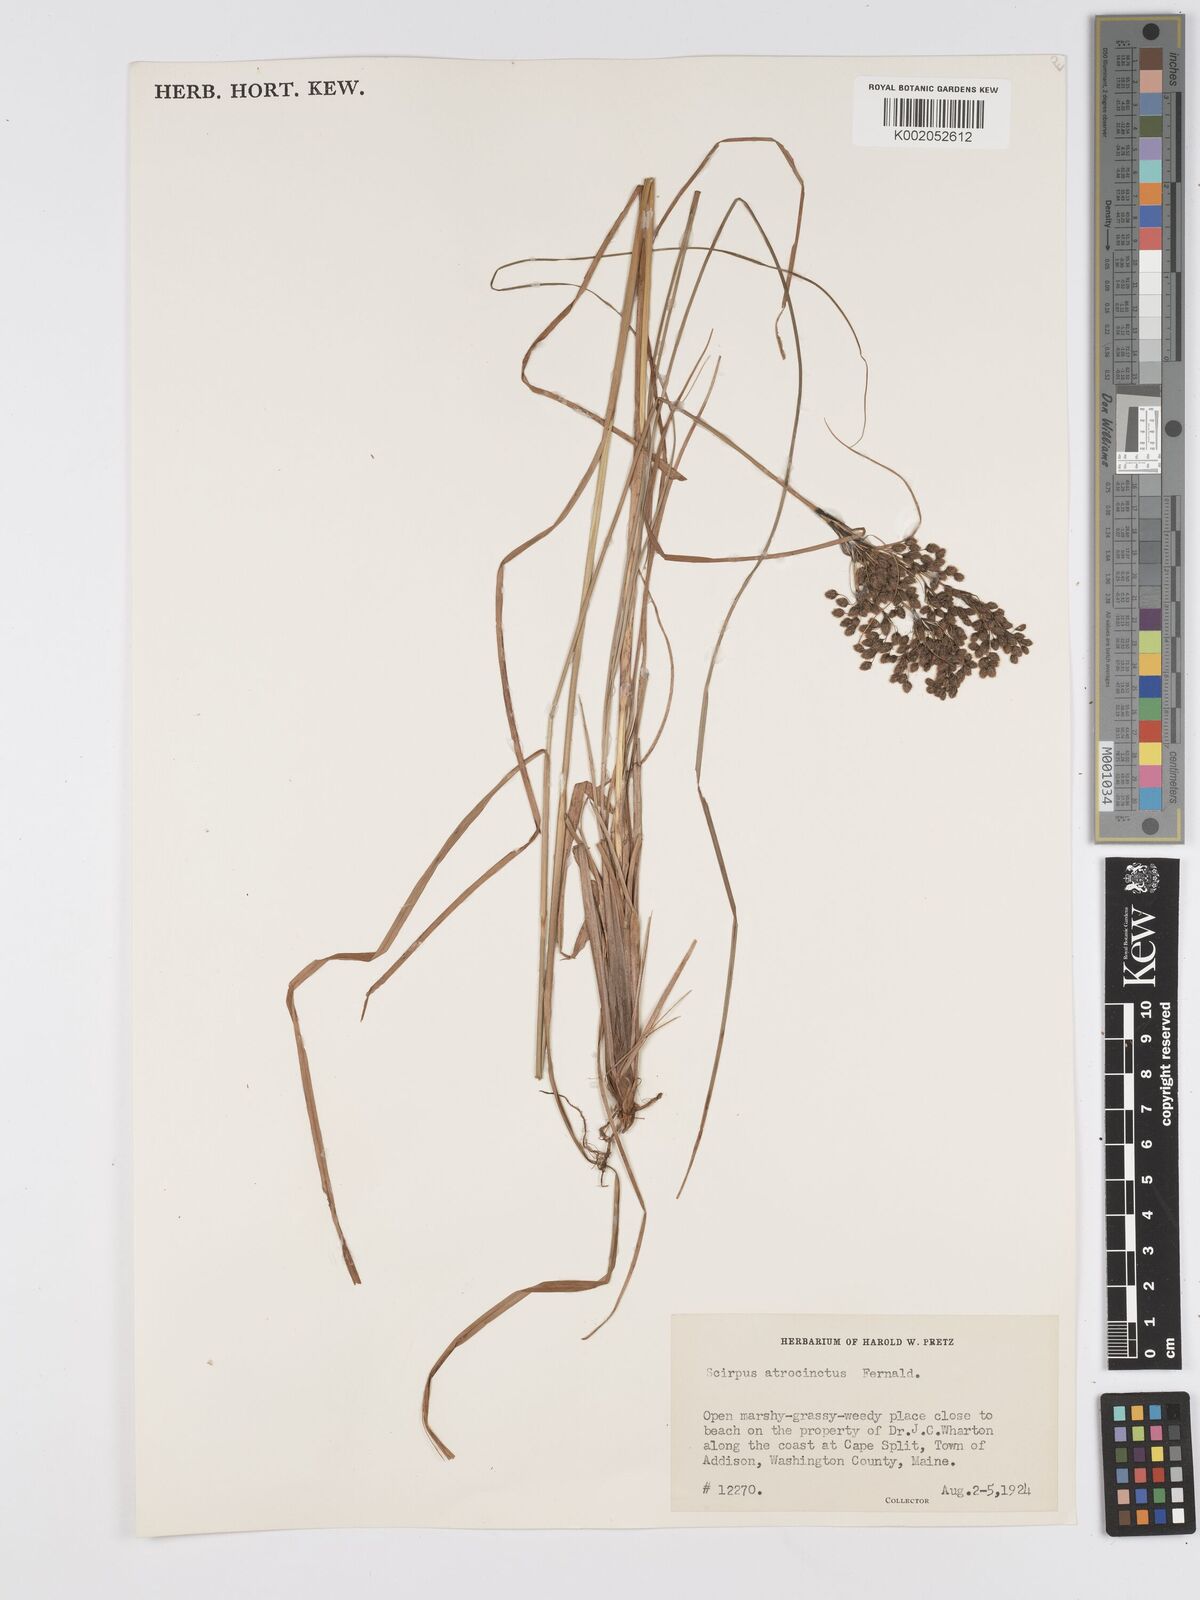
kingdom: Plantae
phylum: Tracheophyta
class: Liliopsida
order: Poales
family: Cyperaceae
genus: Scirpus
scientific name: Scirpus atrocinctus
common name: Black-girdled bulrush
